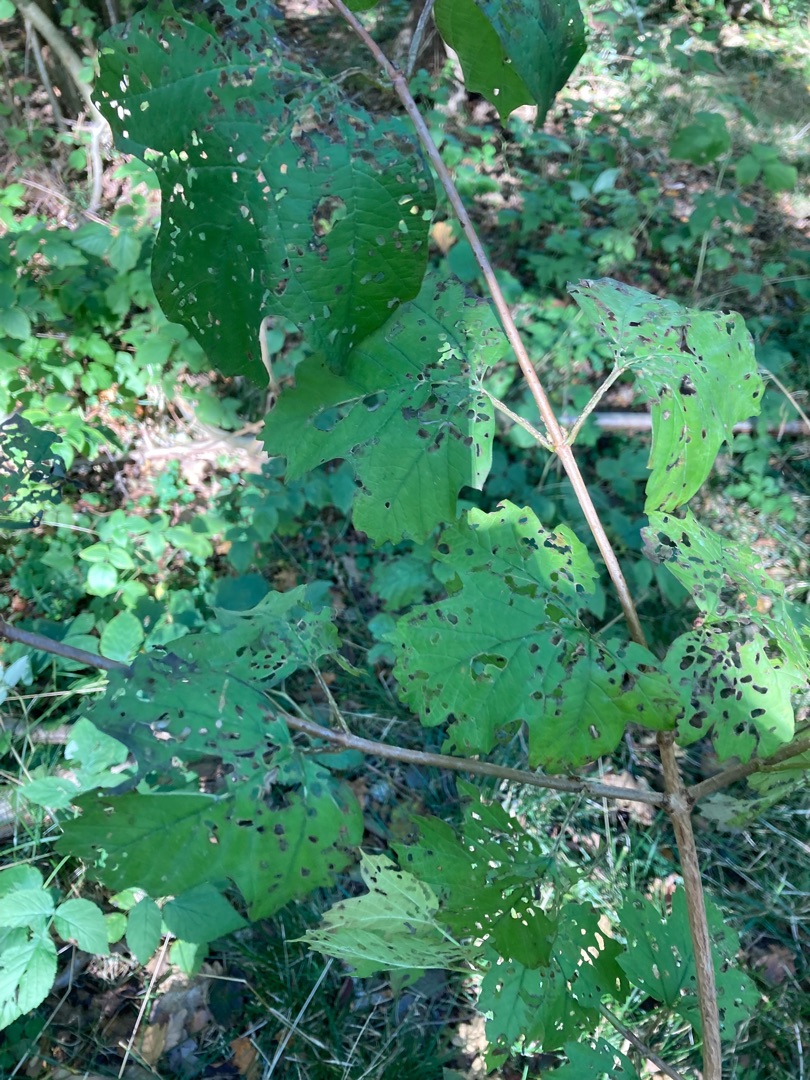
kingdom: Plantae
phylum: Tracheophyta
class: Magnoliopsida
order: Dipsacales
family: Viburnaceae
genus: Viburnum
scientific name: Viburnum opulus
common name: Kvalkved
